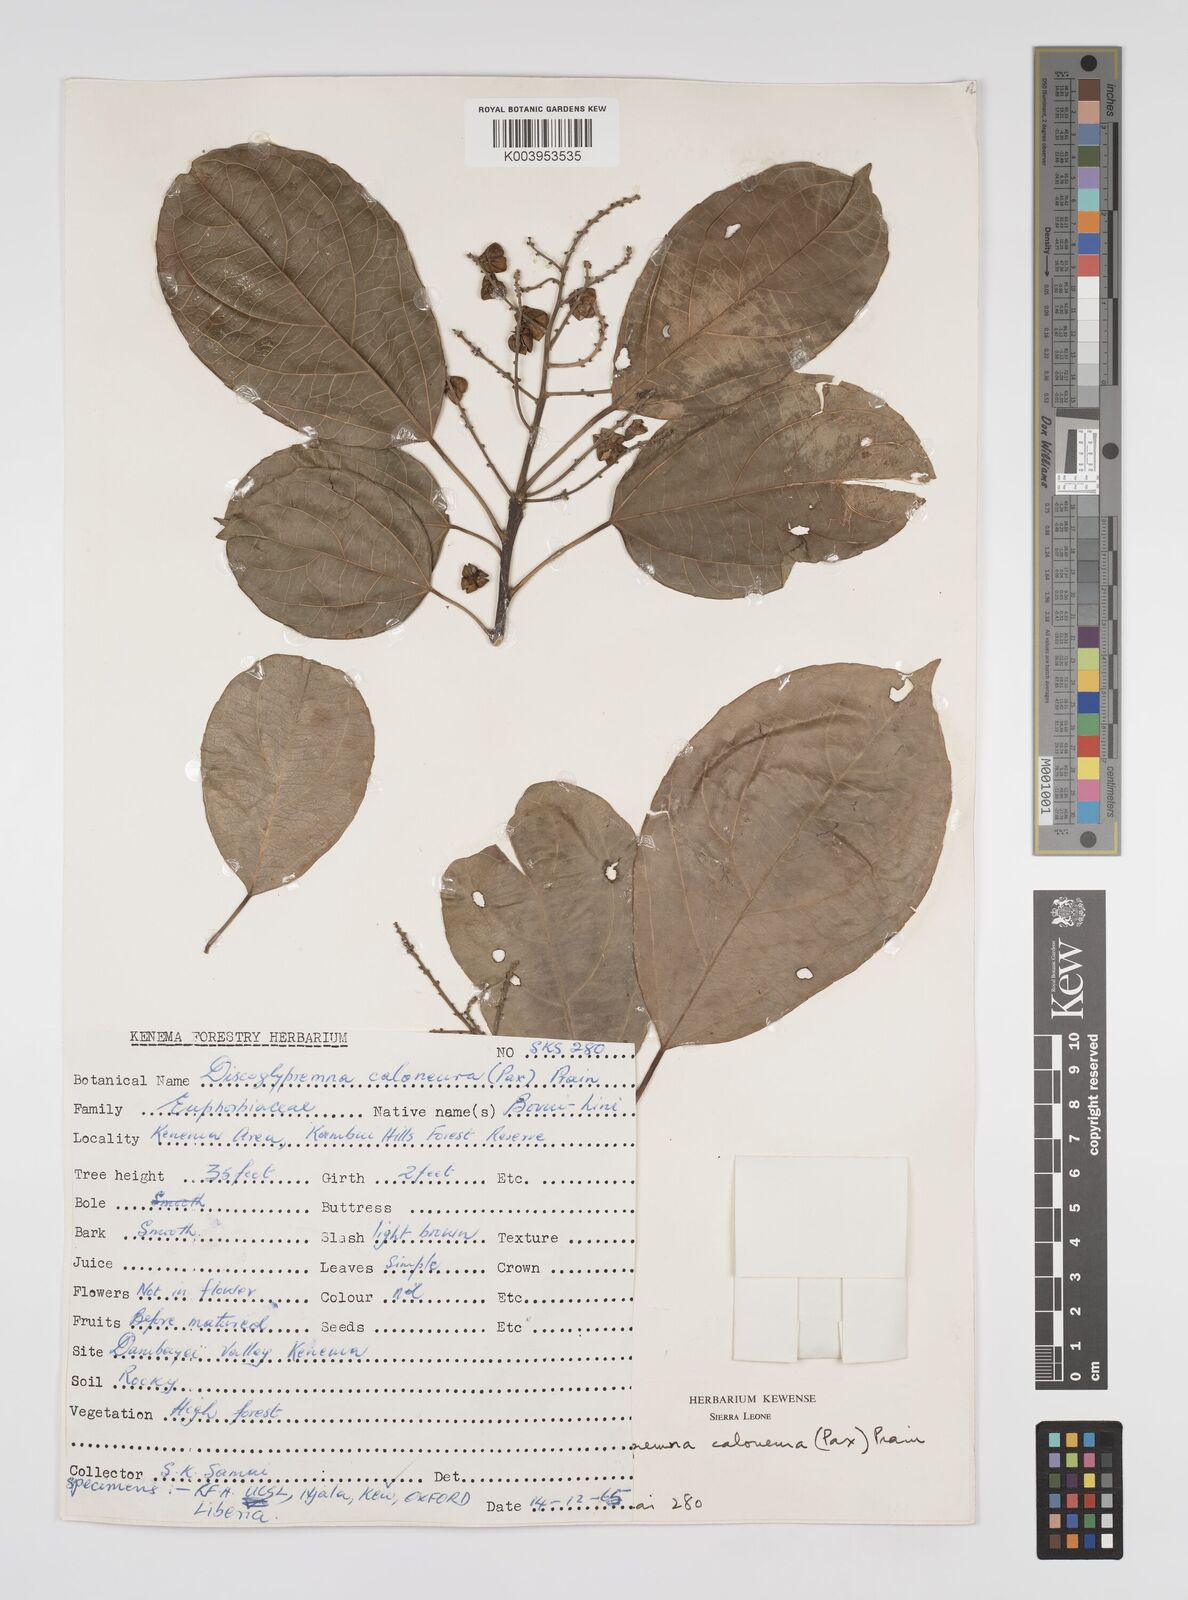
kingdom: Plantae
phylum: Tracheophyta
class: Magnoliopsida
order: Malpighiales
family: Euphorbiaceae
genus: Discoglypremna
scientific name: Discoglypremna caloneura
